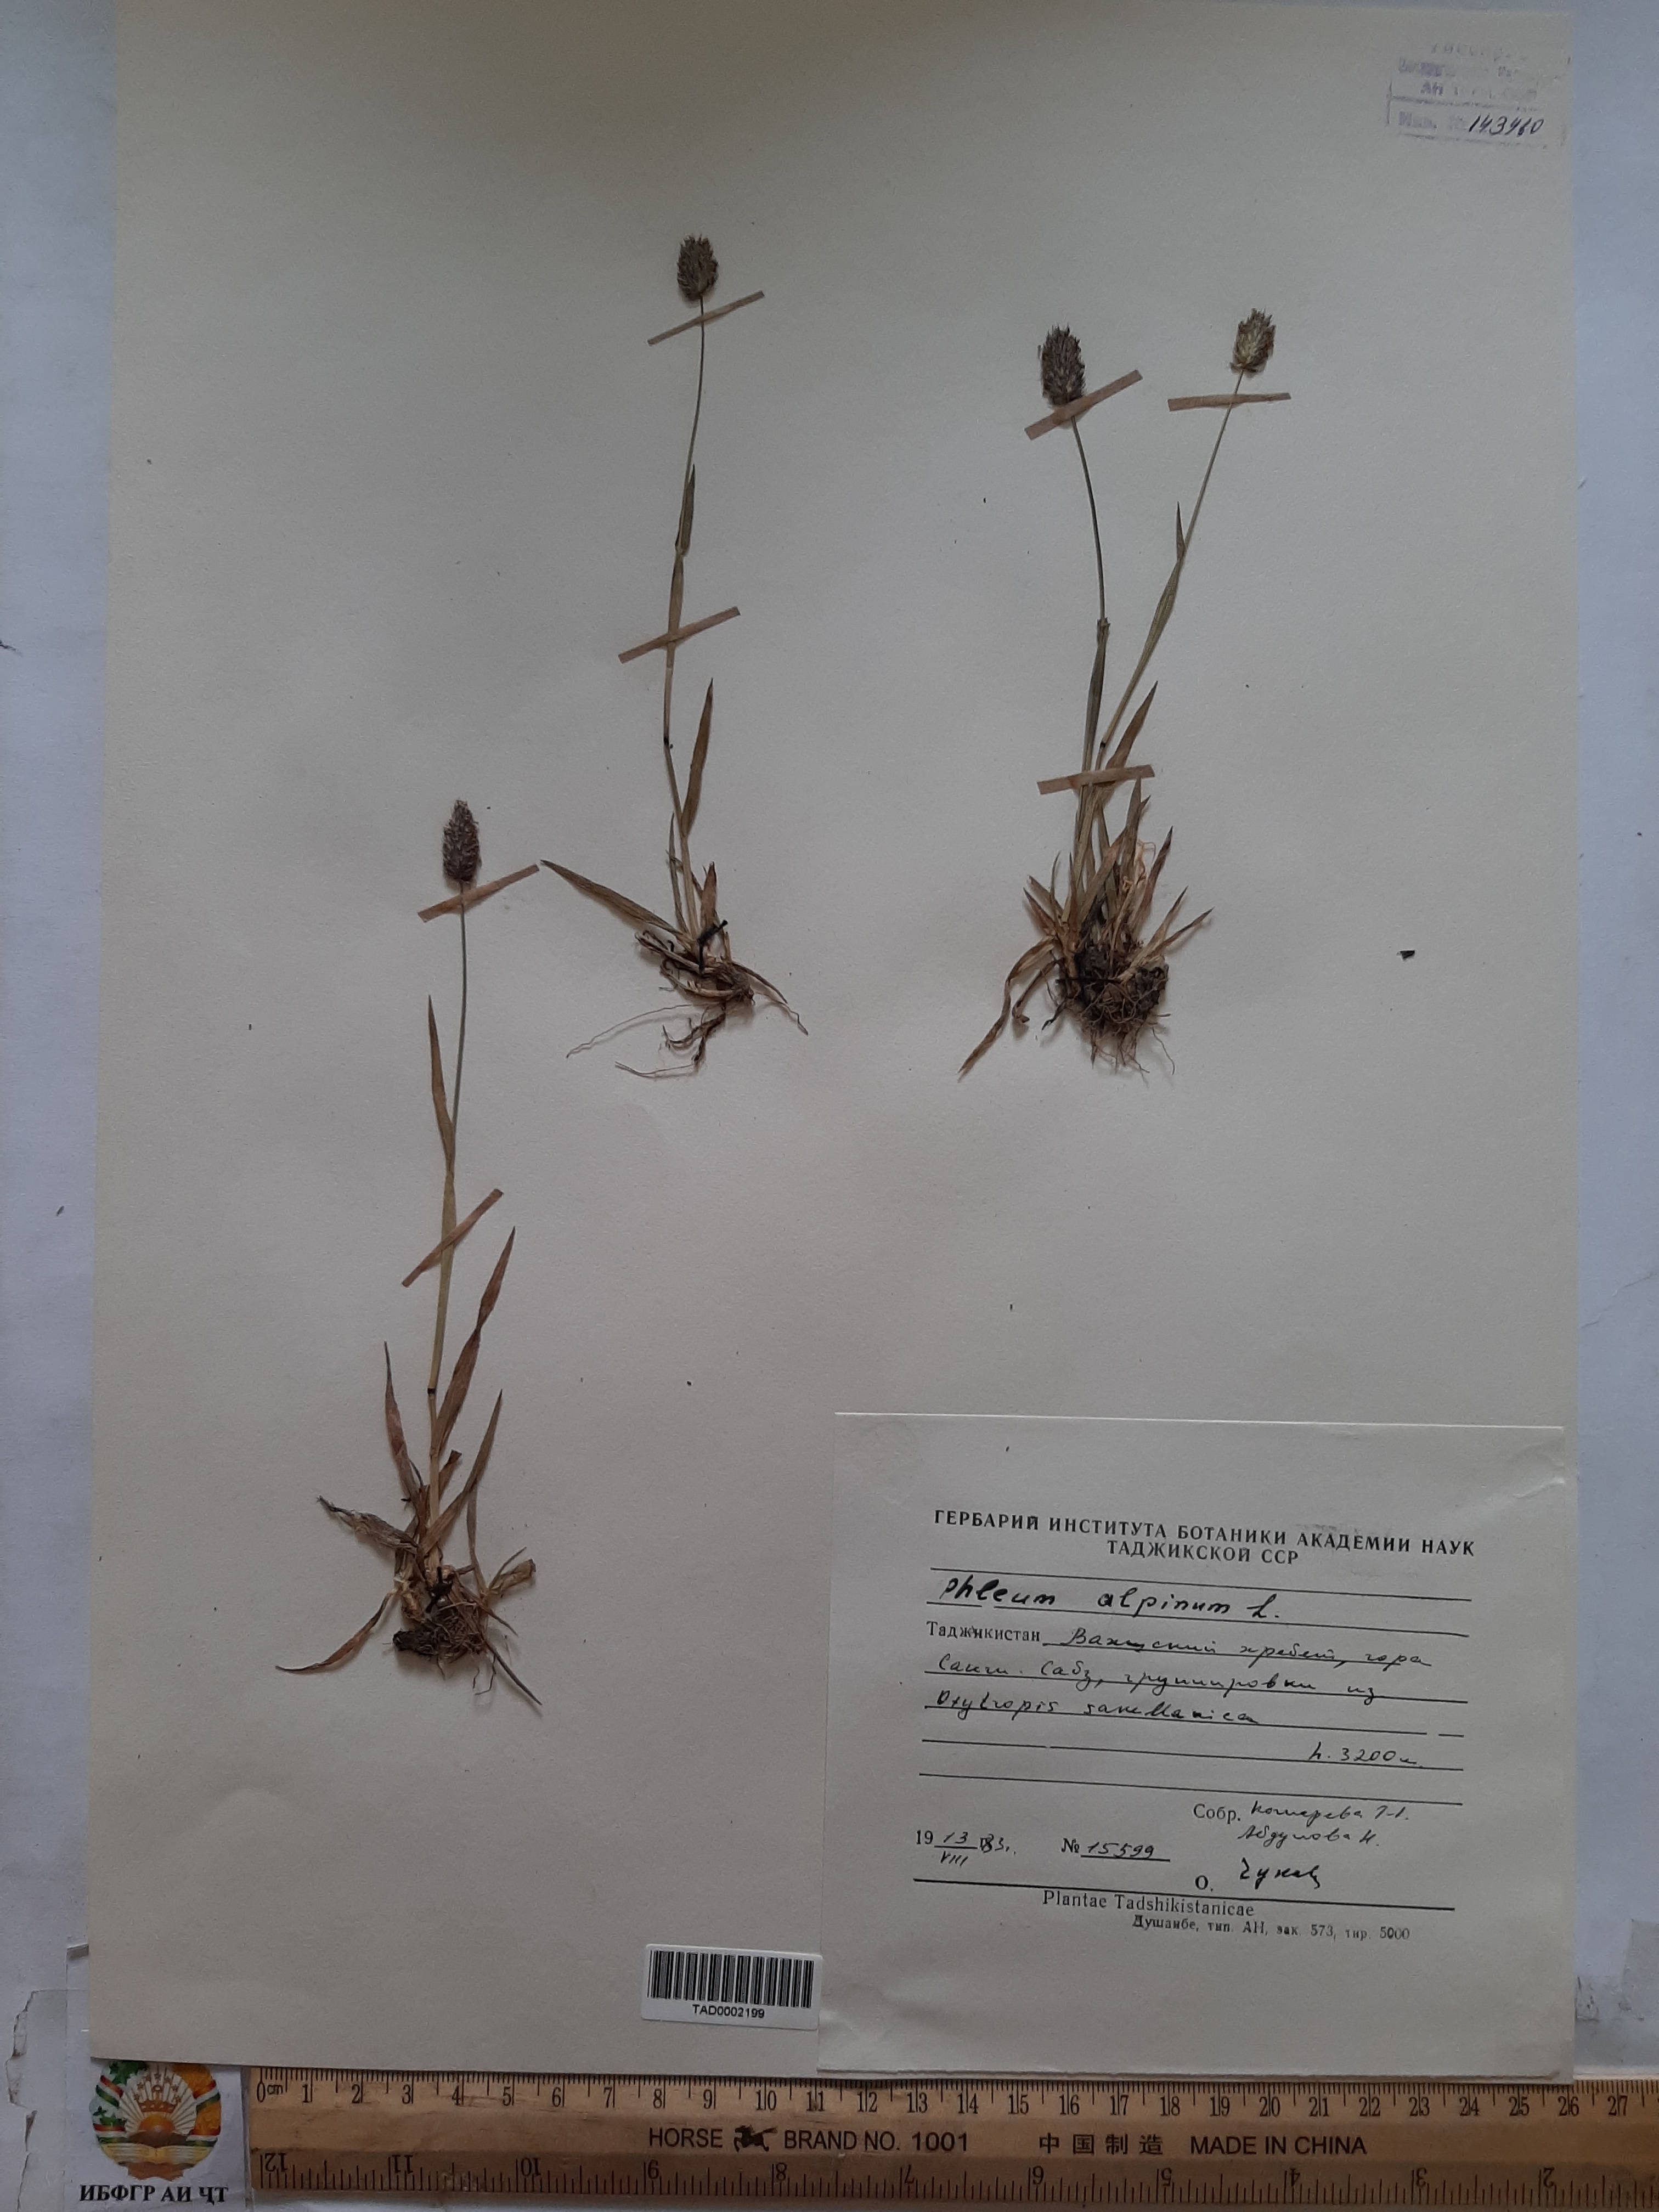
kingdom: Plantae
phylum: Tracheophyta
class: Liliopsida
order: Poales
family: Poaceae
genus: Phleum
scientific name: Phleum alpinum
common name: Alpine cat's-tail
